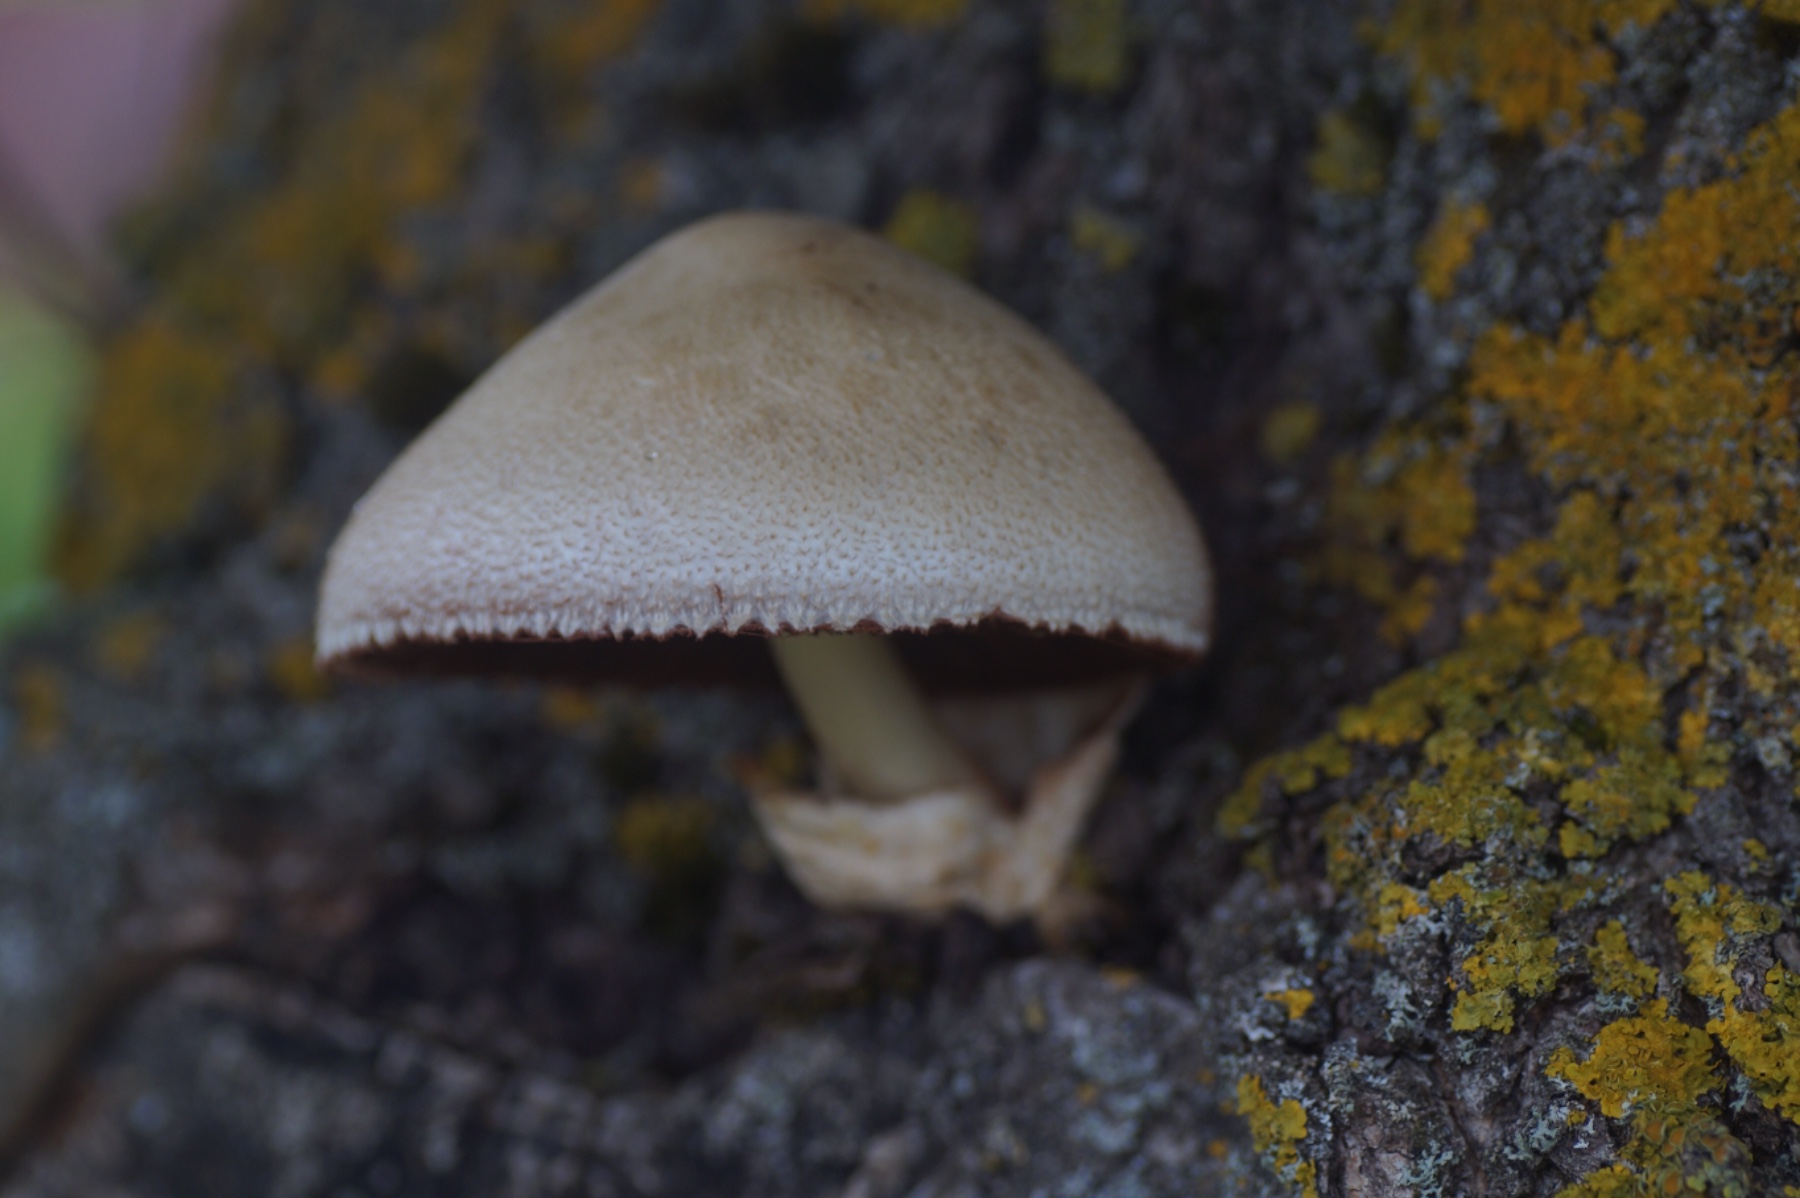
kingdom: Fungi
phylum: Basidiomycota
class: Agaricomycetes
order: Agaricales
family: Pluteaceae
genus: Volvariella
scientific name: Volvariella bombycina
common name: silkehåret posesvamp
